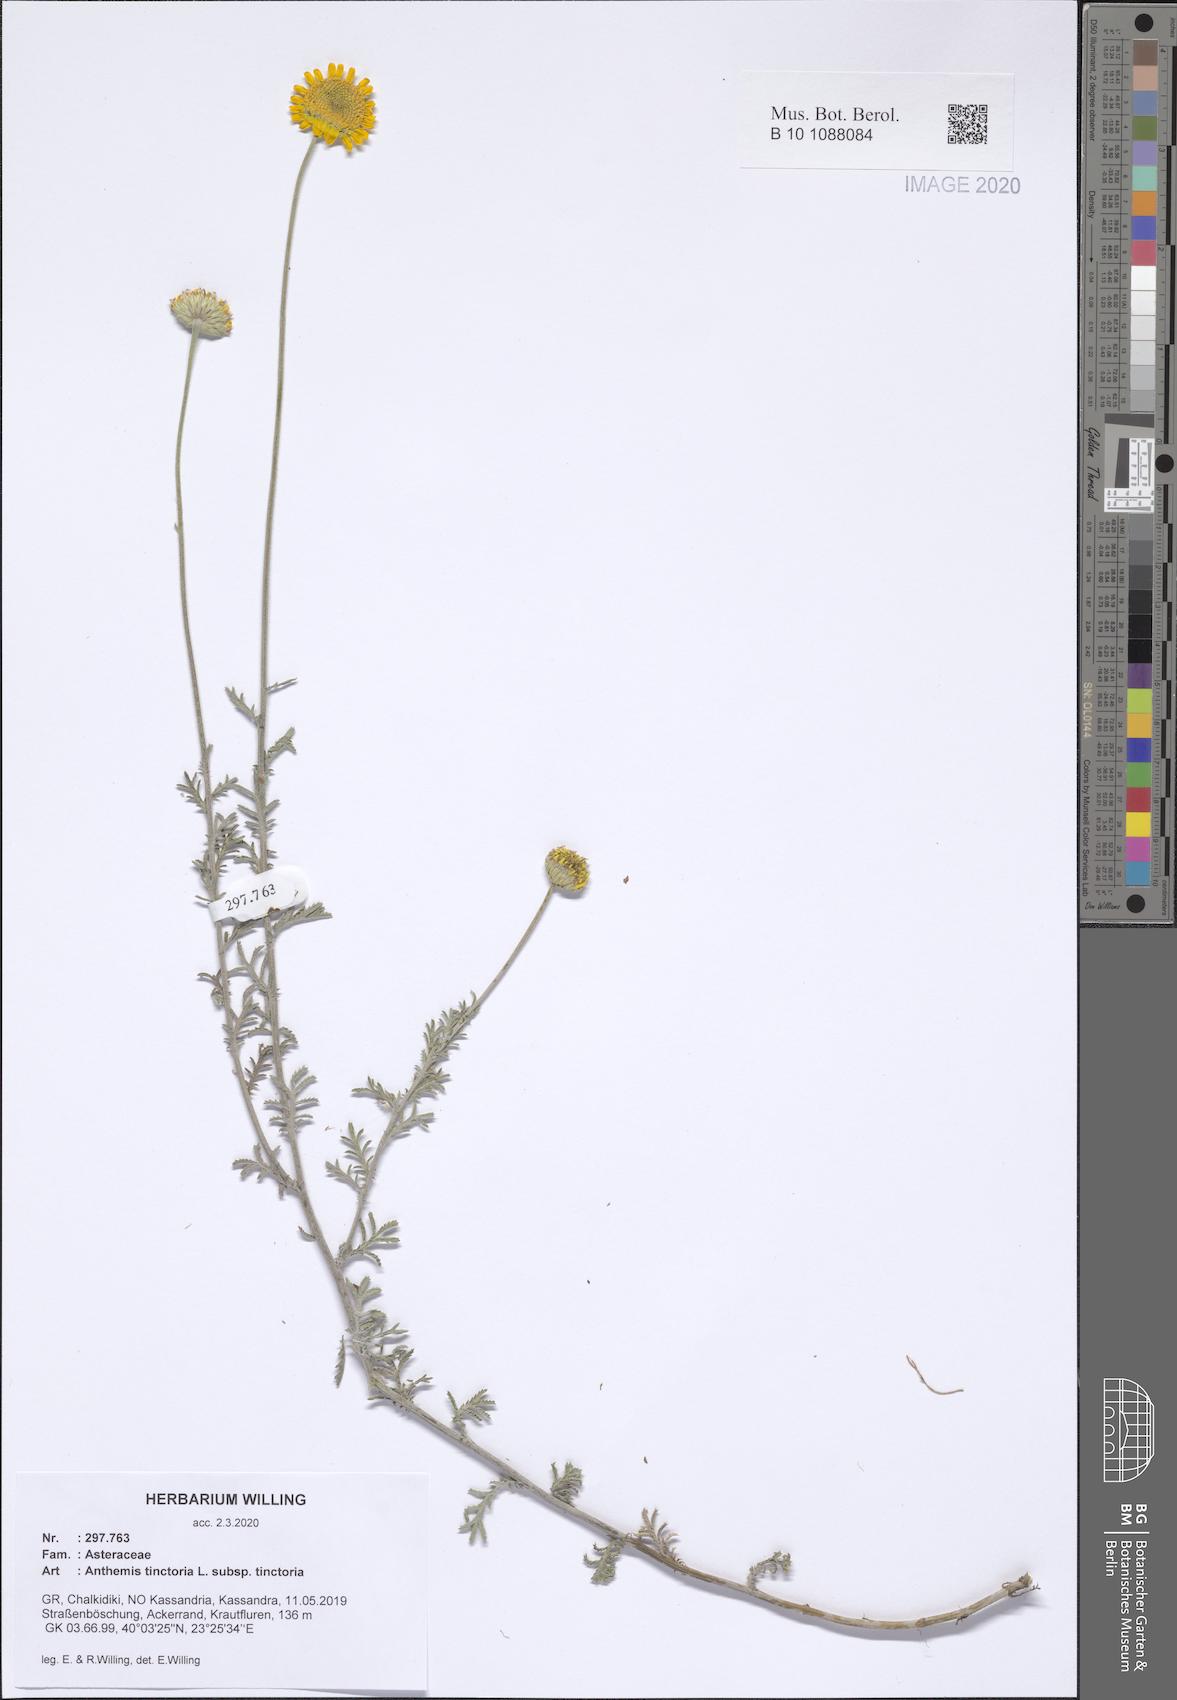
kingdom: Plantae
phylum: Tracheophyta
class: Magnoliopsida
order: Asterales
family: Asteraceae
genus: Cota
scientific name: Cota tinctoria
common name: Golden chamomile
